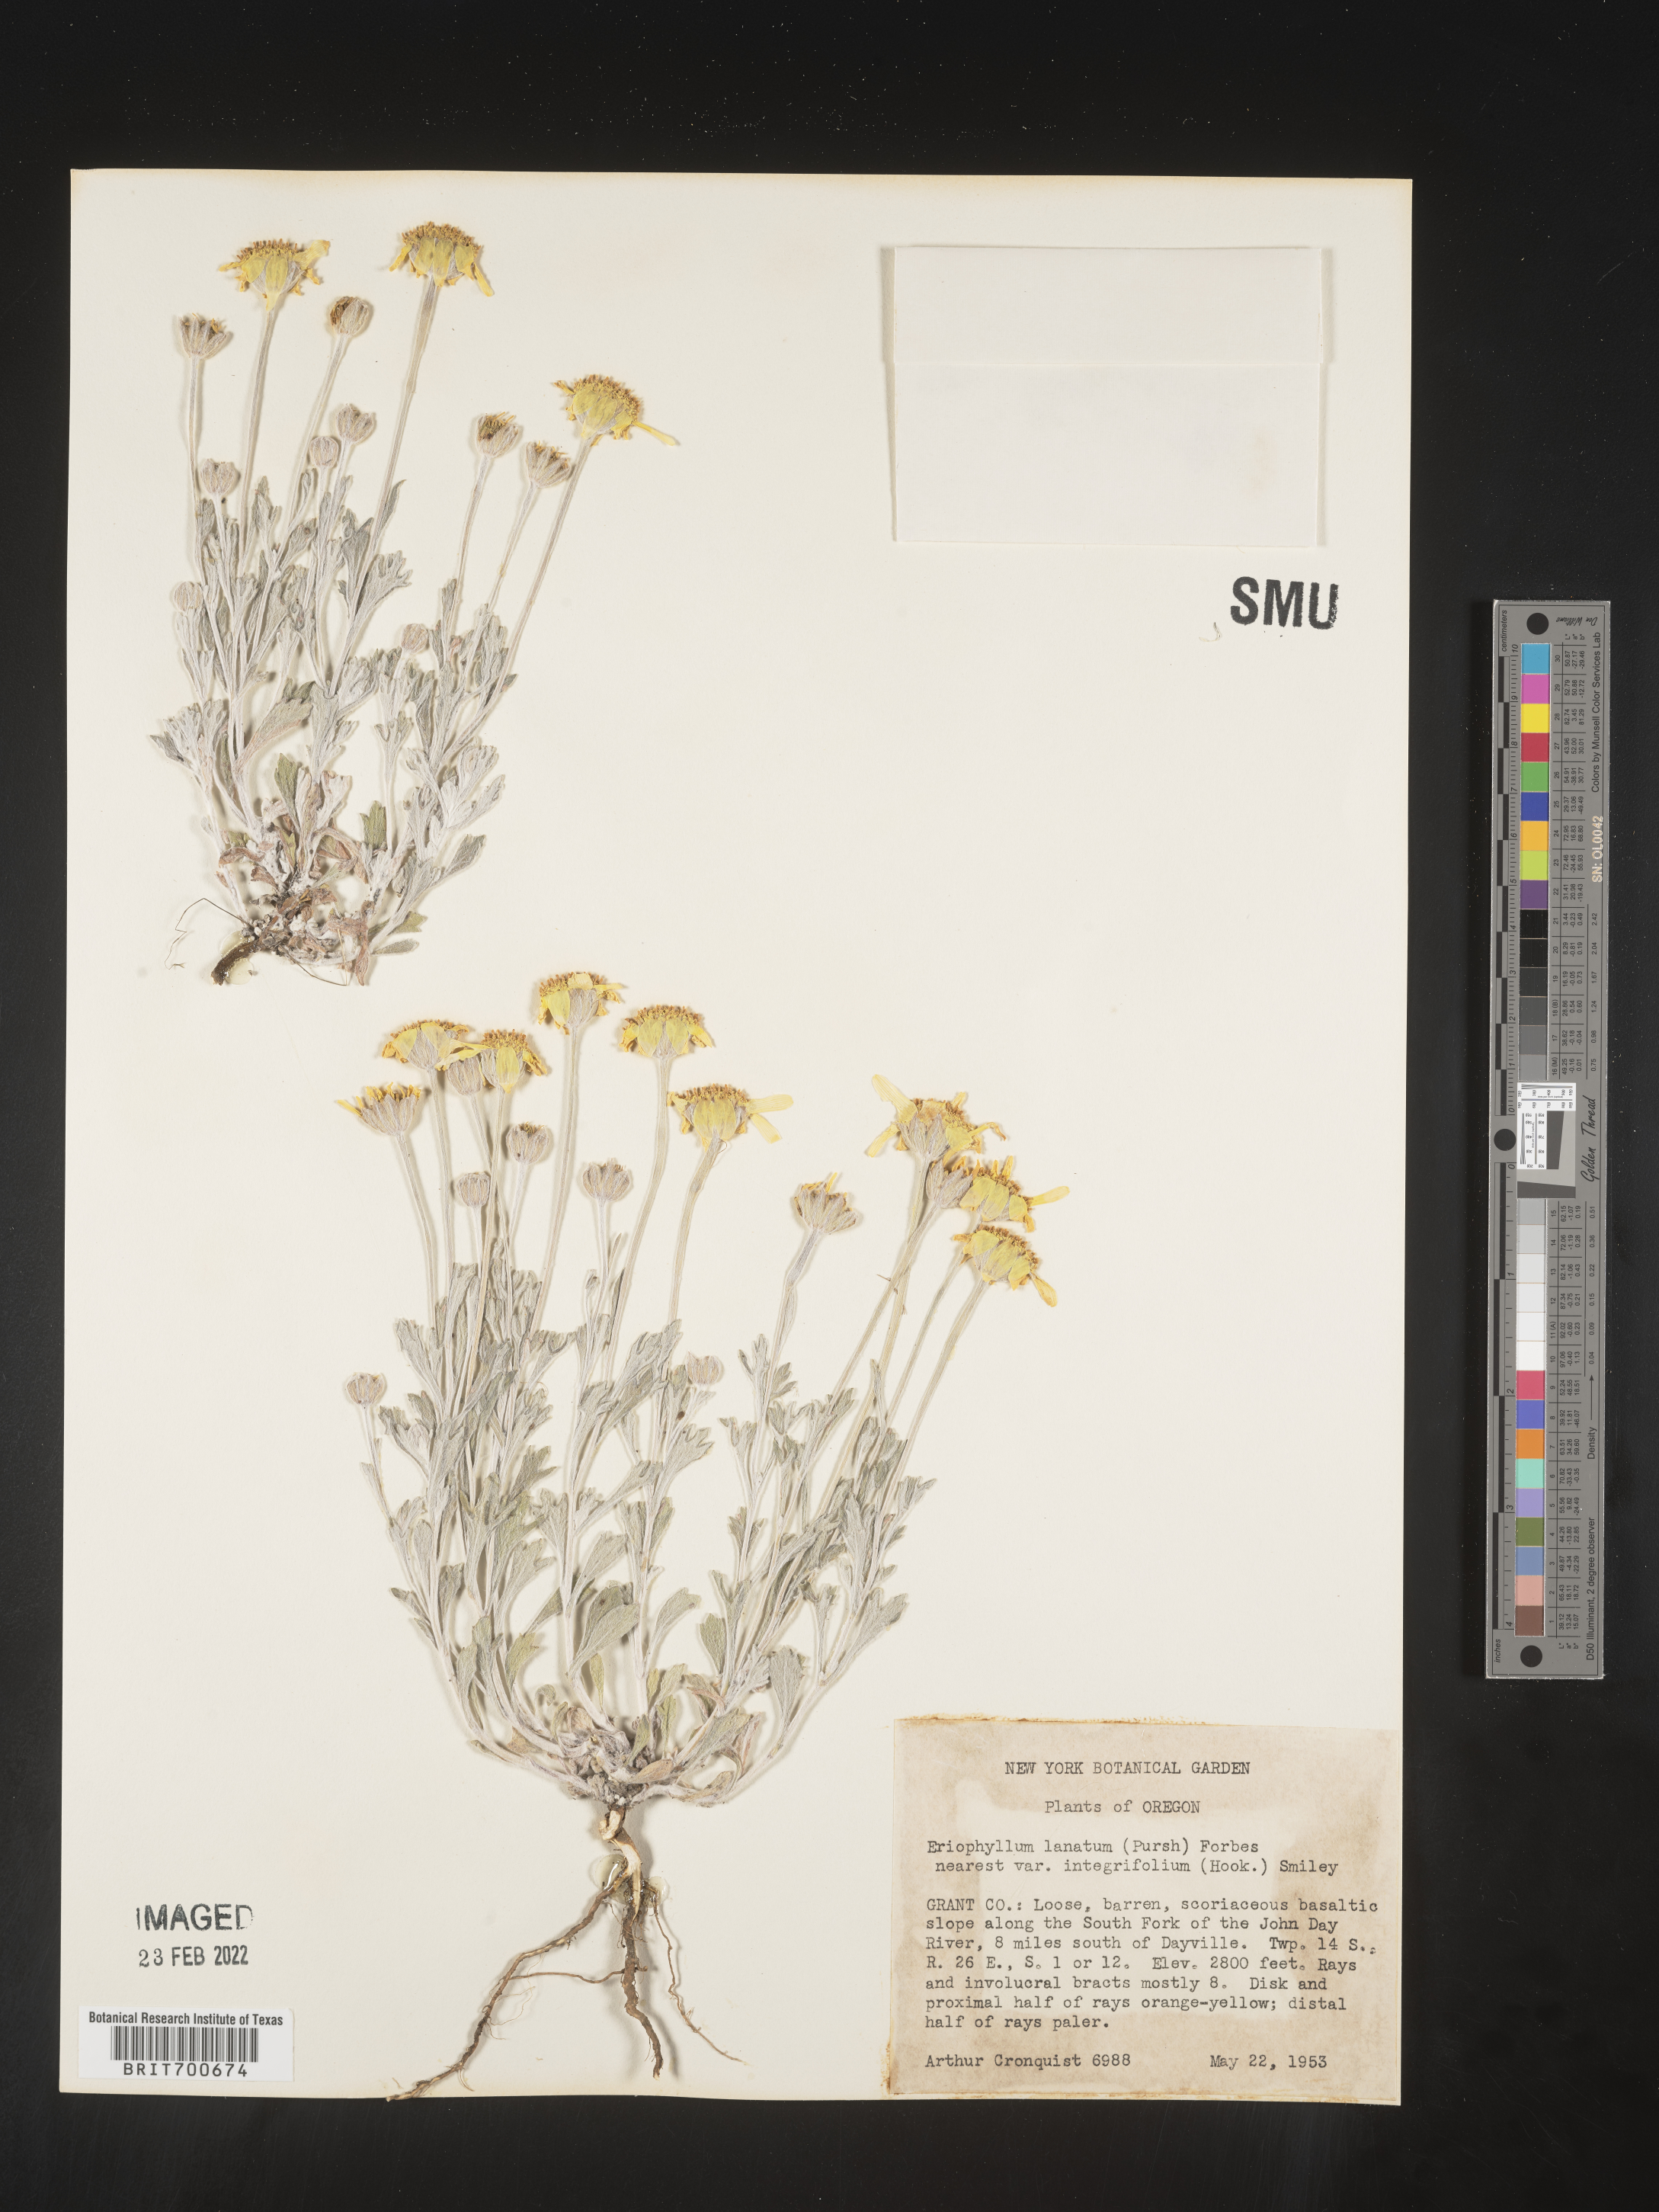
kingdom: Plantae
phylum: Tracheophyta
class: Magnoliopsida
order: Asterales
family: Asteraceae
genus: Eriophyllum
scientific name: Eriophyllum lanatum
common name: Common woolly-sunflower
